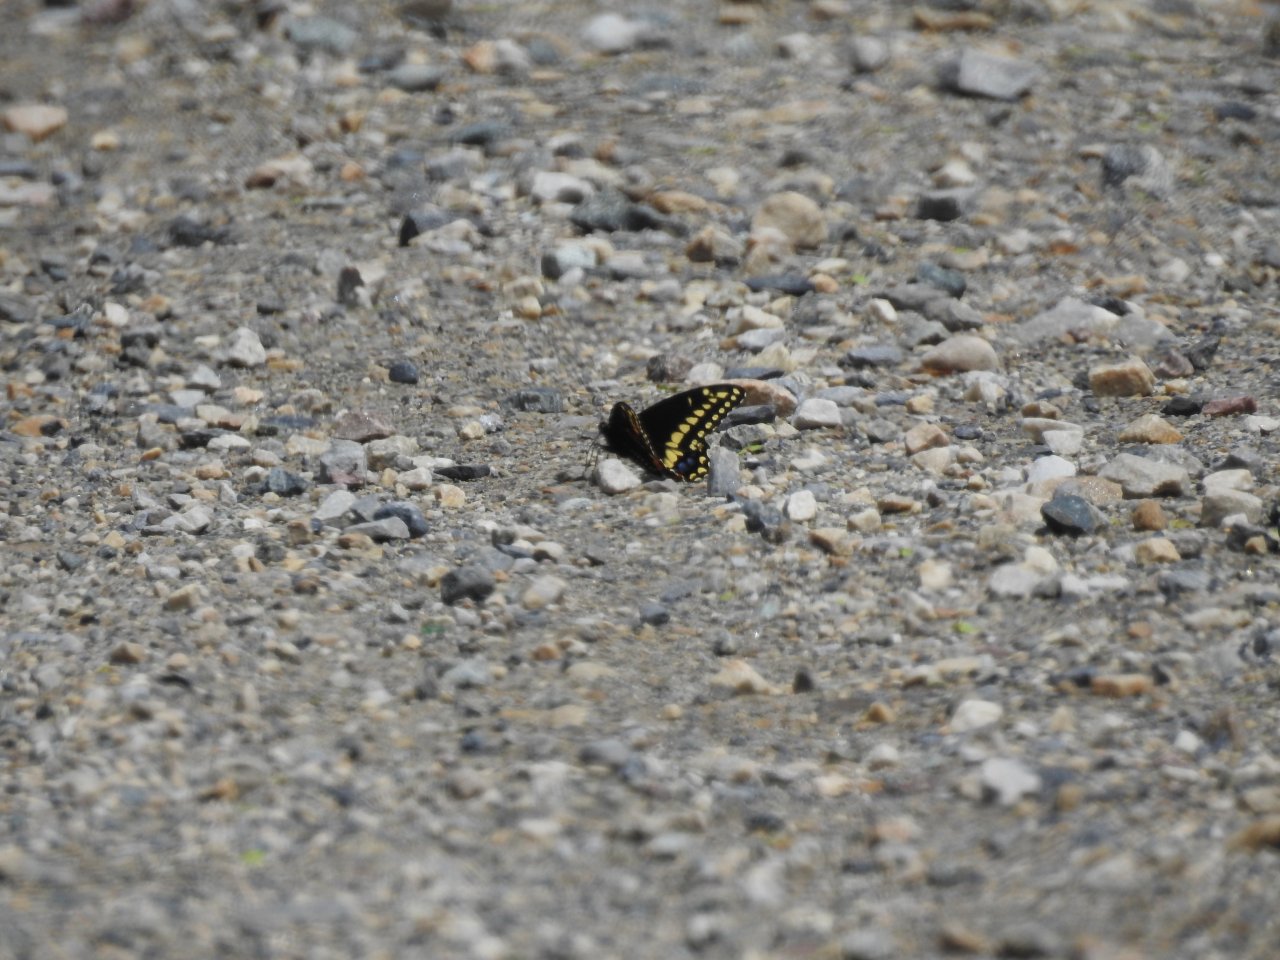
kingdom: Animalia
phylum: Arthropoda
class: Insecta
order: Lepidoptera
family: Papilionidae
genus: Papilio
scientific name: Papilio polyxenes
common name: Black Swallowtail
